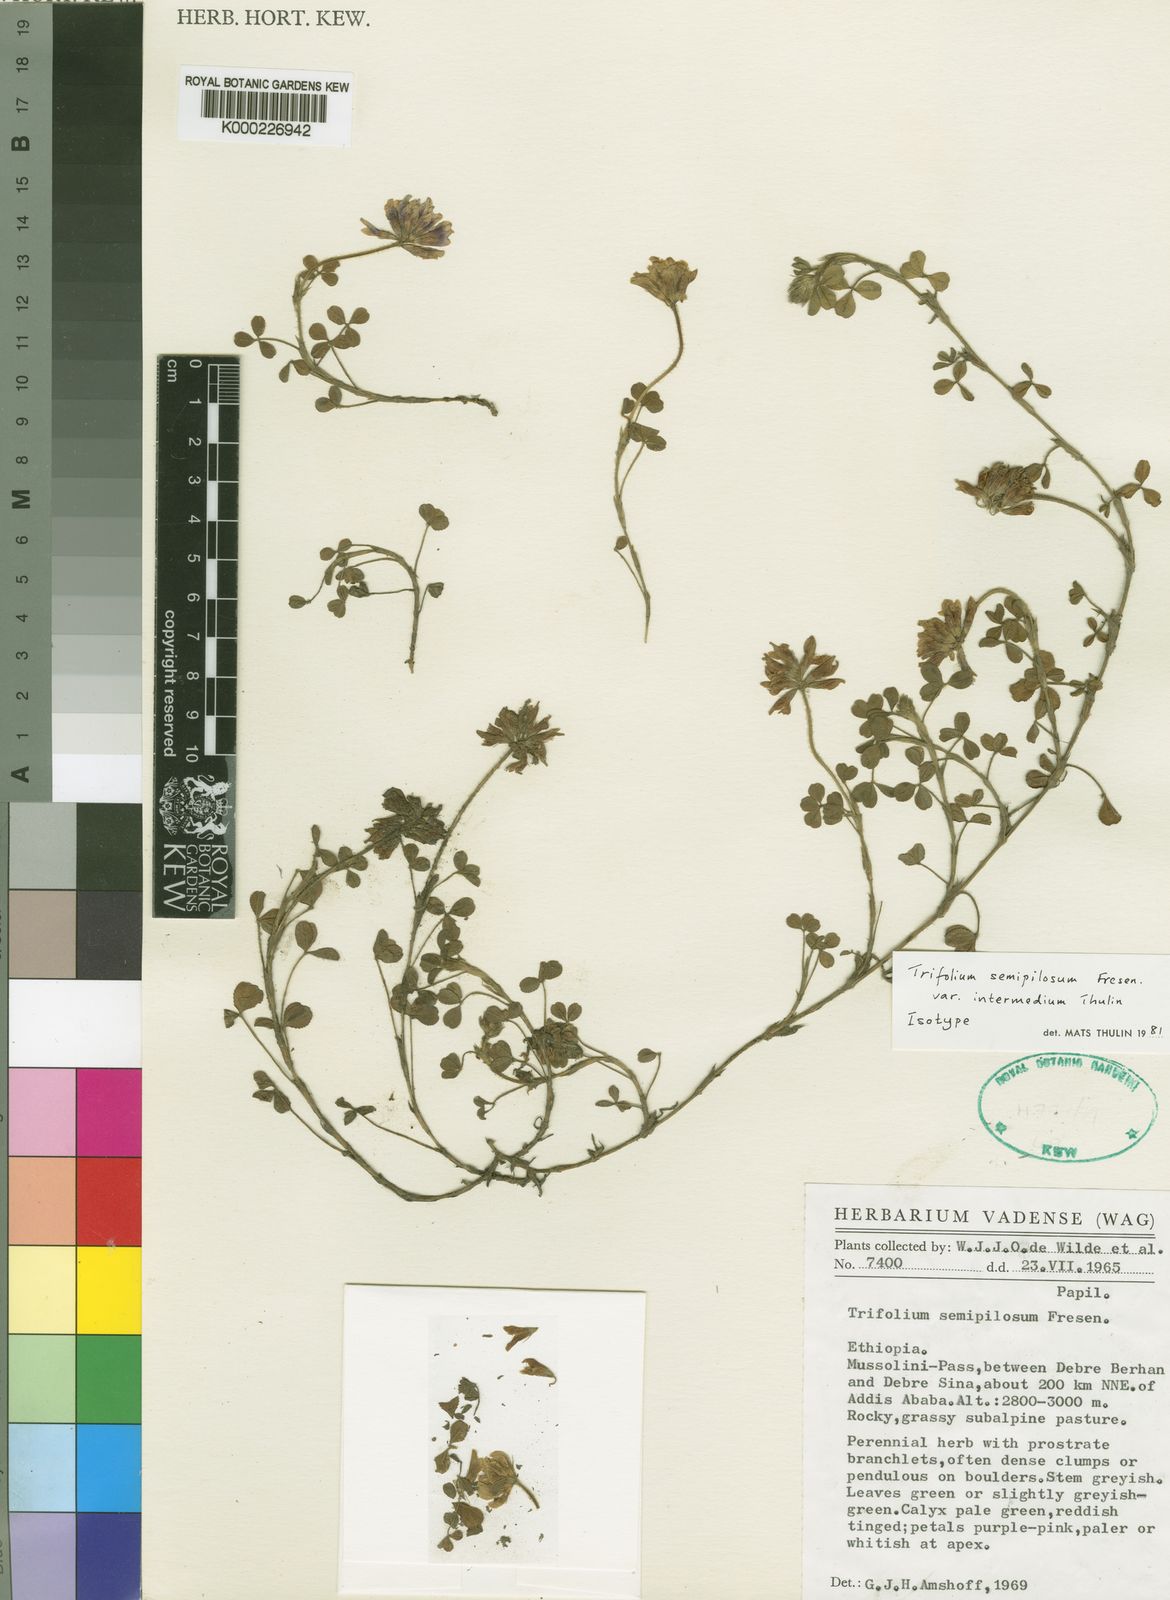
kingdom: Plantae
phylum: Tracheophyta
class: Magnoliopsida
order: Fabales
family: Fabaceae
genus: Trifolium
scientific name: Trifolium semipilosum
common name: Kenya clover
